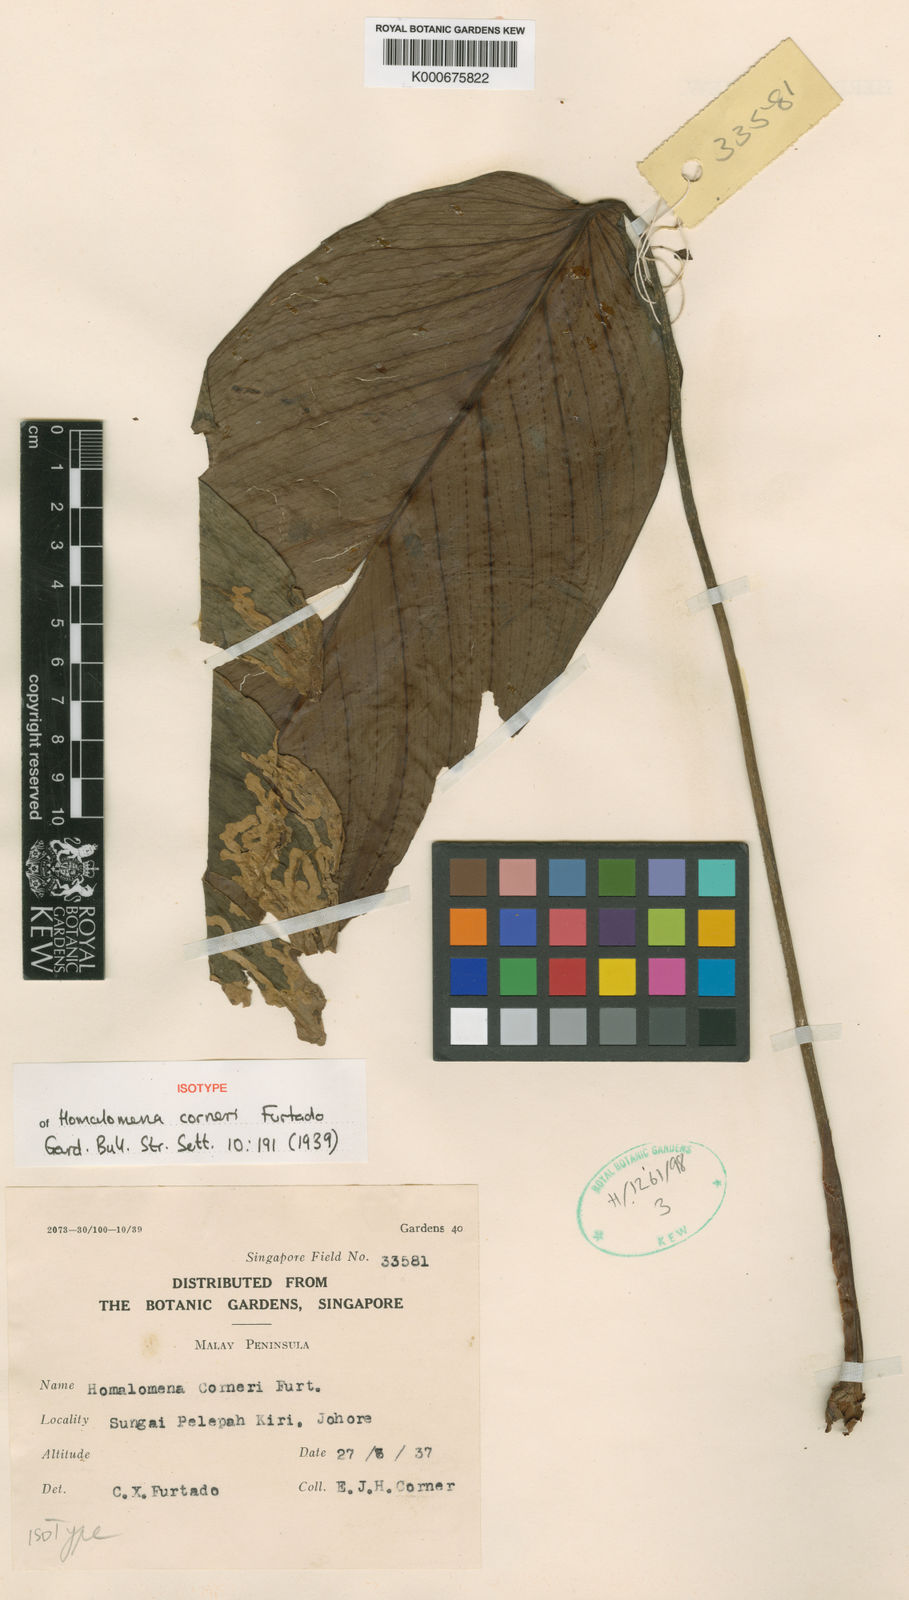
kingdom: Plantae
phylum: Tracheophyta
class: Liliopsida
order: Alismatales
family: Araceae
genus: Homalomena
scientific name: Homalomena corneri
